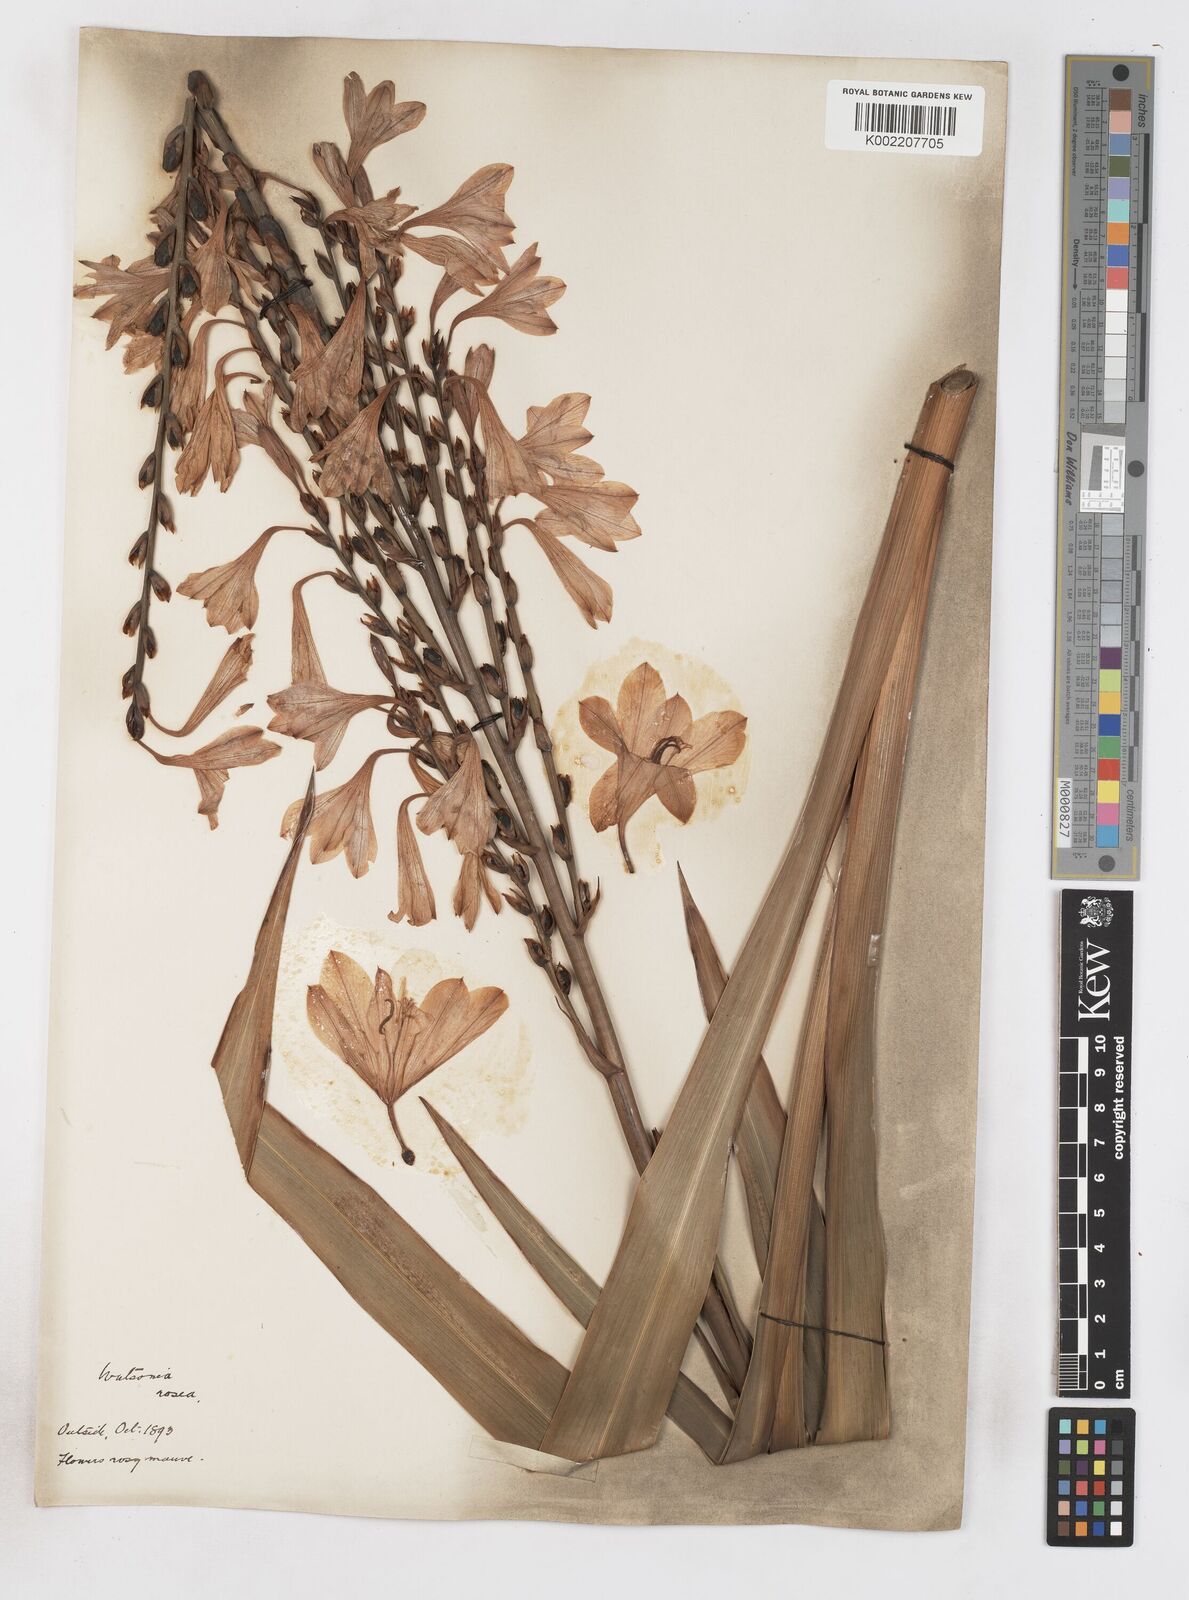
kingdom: Plantae
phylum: Tracheophyta
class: Liliopsida
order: Asparagales
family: Iridaceae
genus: Watsonia
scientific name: Watsonia borbonica
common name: Bugle-lily
